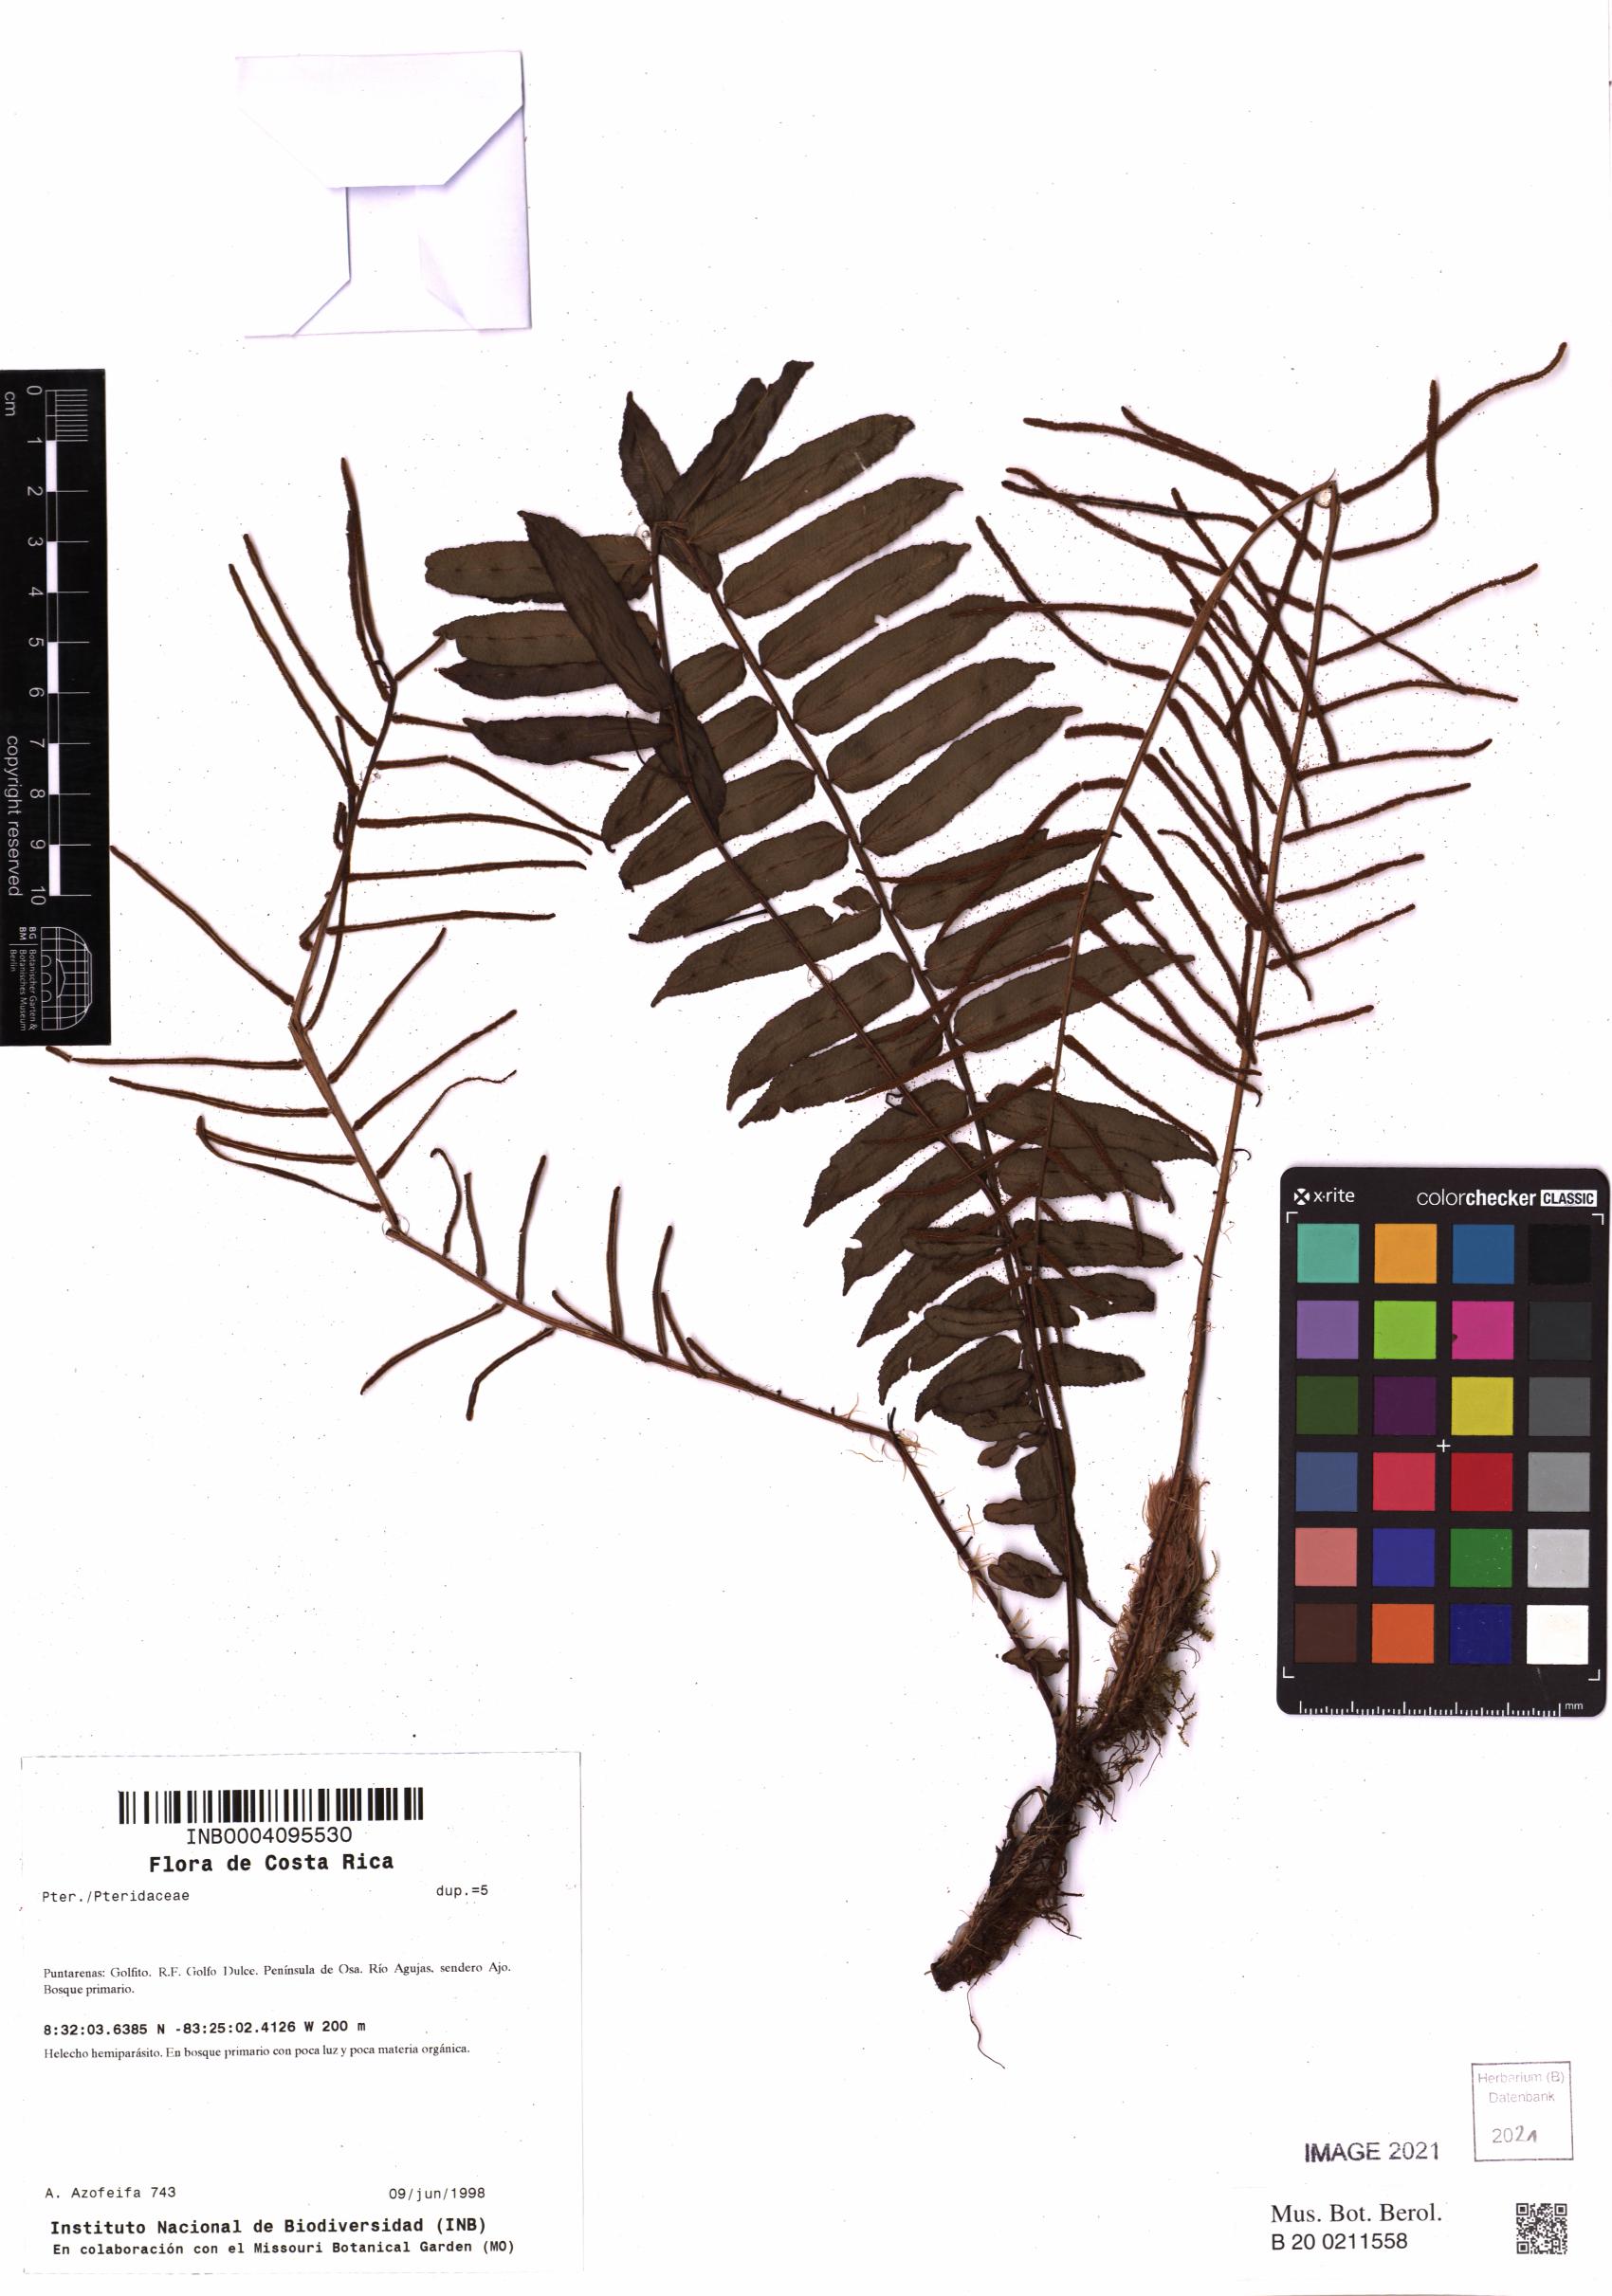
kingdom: Plantae
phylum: Tracheophyta
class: Polypodiopsida
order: Polypodiales
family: Blechnaceae
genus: Lomariocycas
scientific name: Lomariocycas insularis
